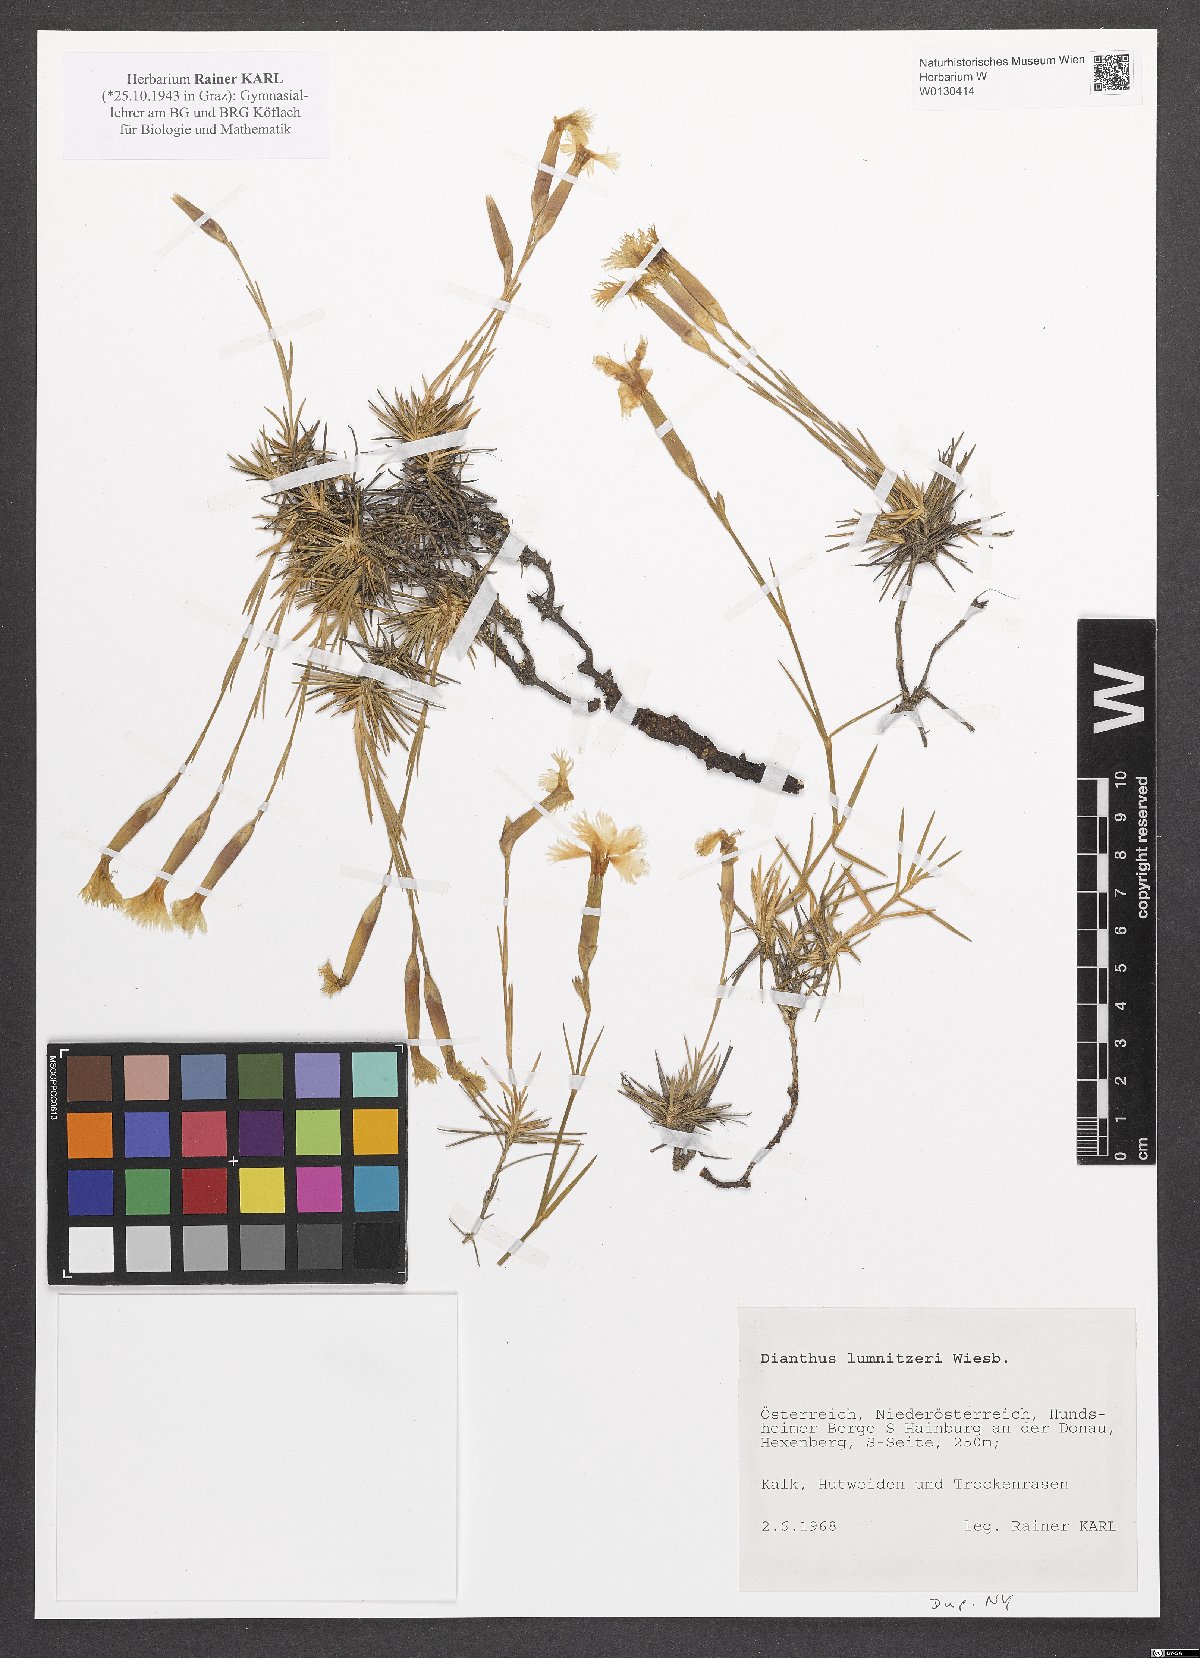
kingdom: Plantae
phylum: Tracheophyta
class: Magnoliopsida
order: Caryophyllales
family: Caryophyllaceae
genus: Dianthus
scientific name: Dianthus praecox
